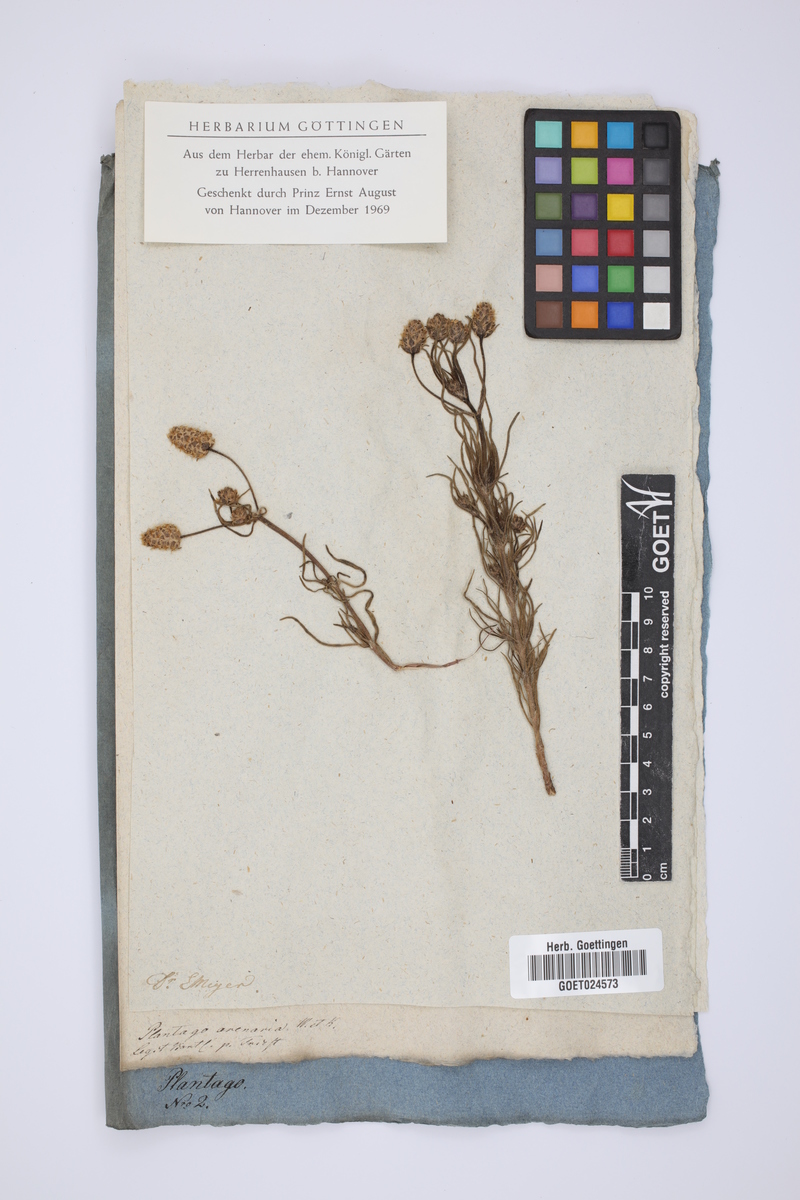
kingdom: Plantae
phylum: Tracheophyta
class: Magnoliopsida
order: Lamiales
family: Plantaginaceae
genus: Plantago
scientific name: Plantago arenaria
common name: Branched plantain
